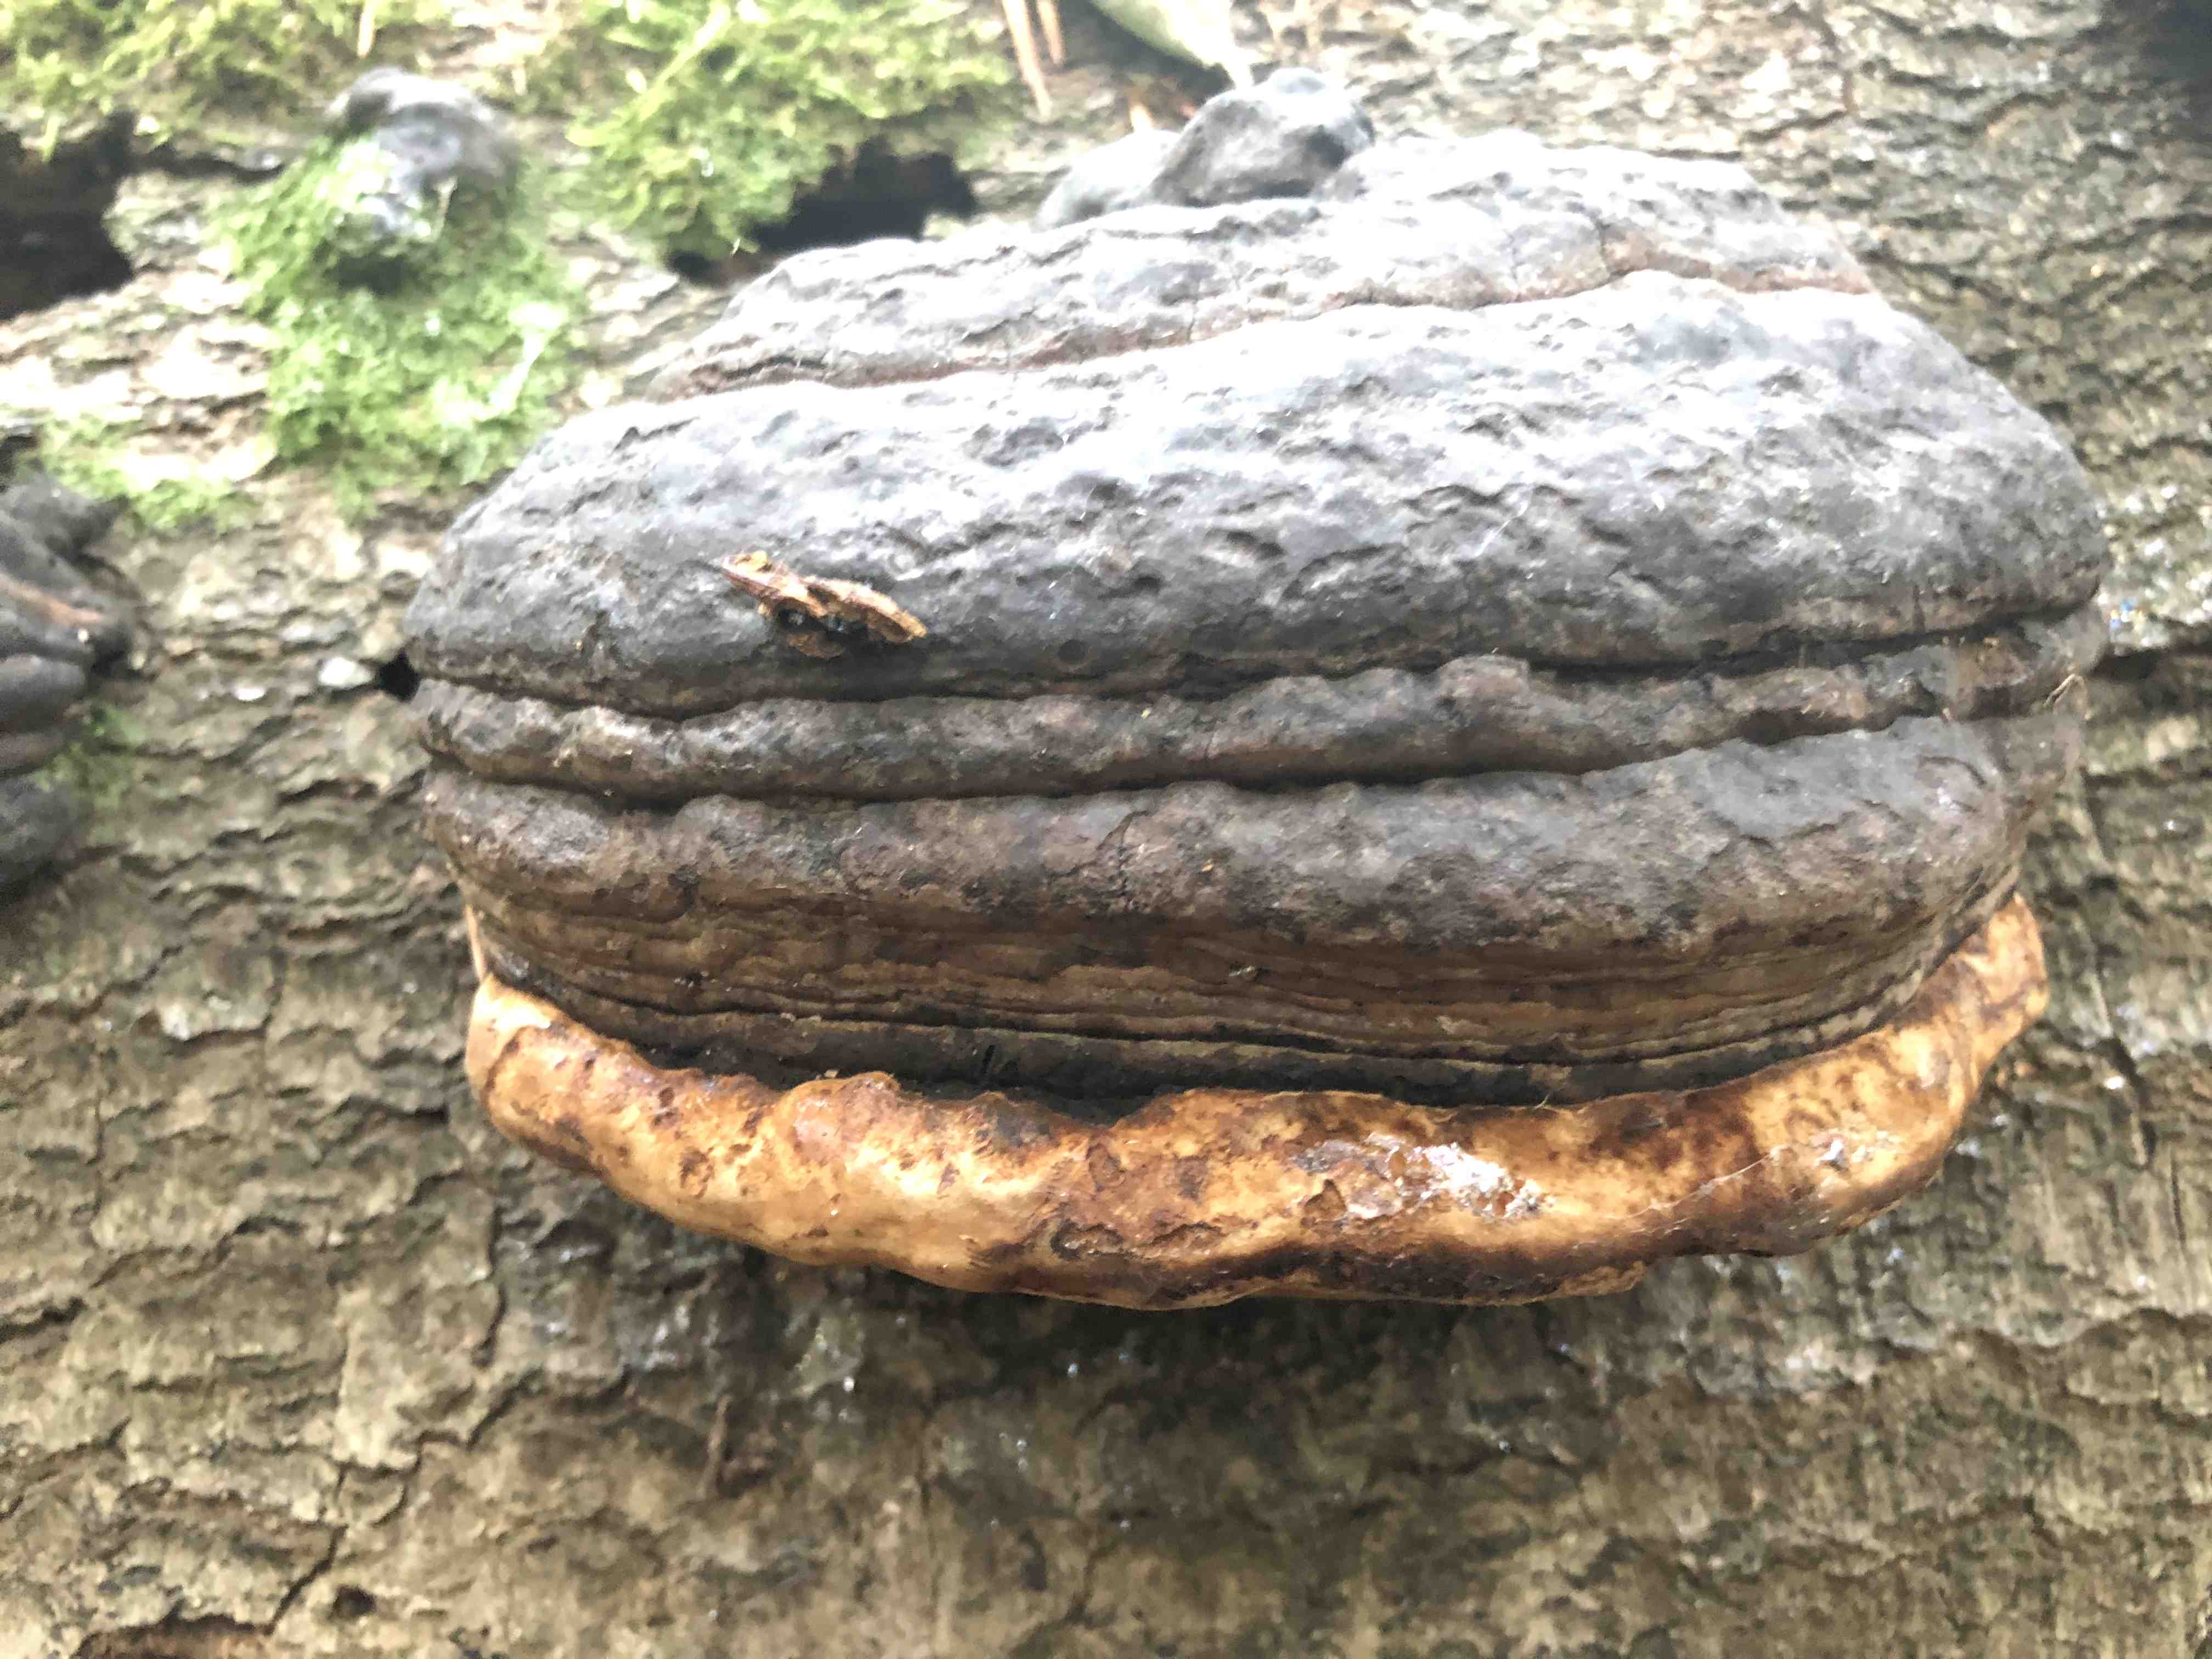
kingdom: Fungi
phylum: Basidiomycota
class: Agaricomycetes
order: Polyporales
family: Polyporaceae
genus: Fomes
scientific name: Fomes fomentarius
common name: tøndersvamp
